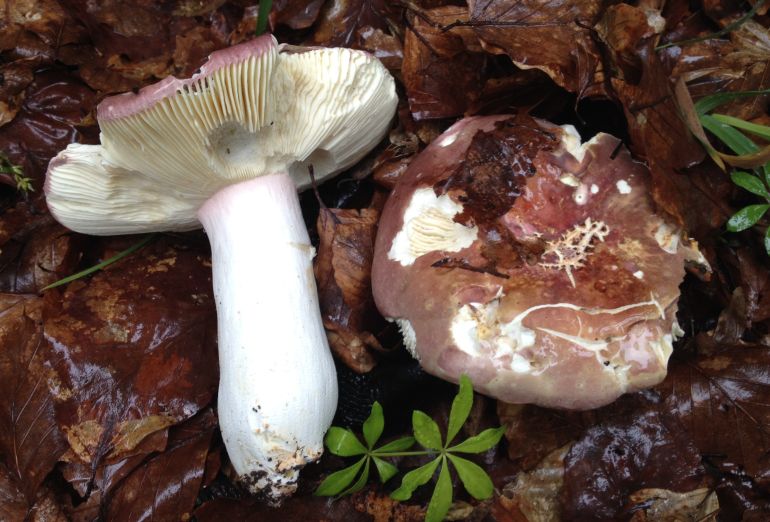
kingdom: Fungi
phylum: Basidiomycota
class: Agaricomycetes
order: Russulales
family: Russulaceae
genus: Russula
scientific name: Russula olivacea
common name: stor skørhat
